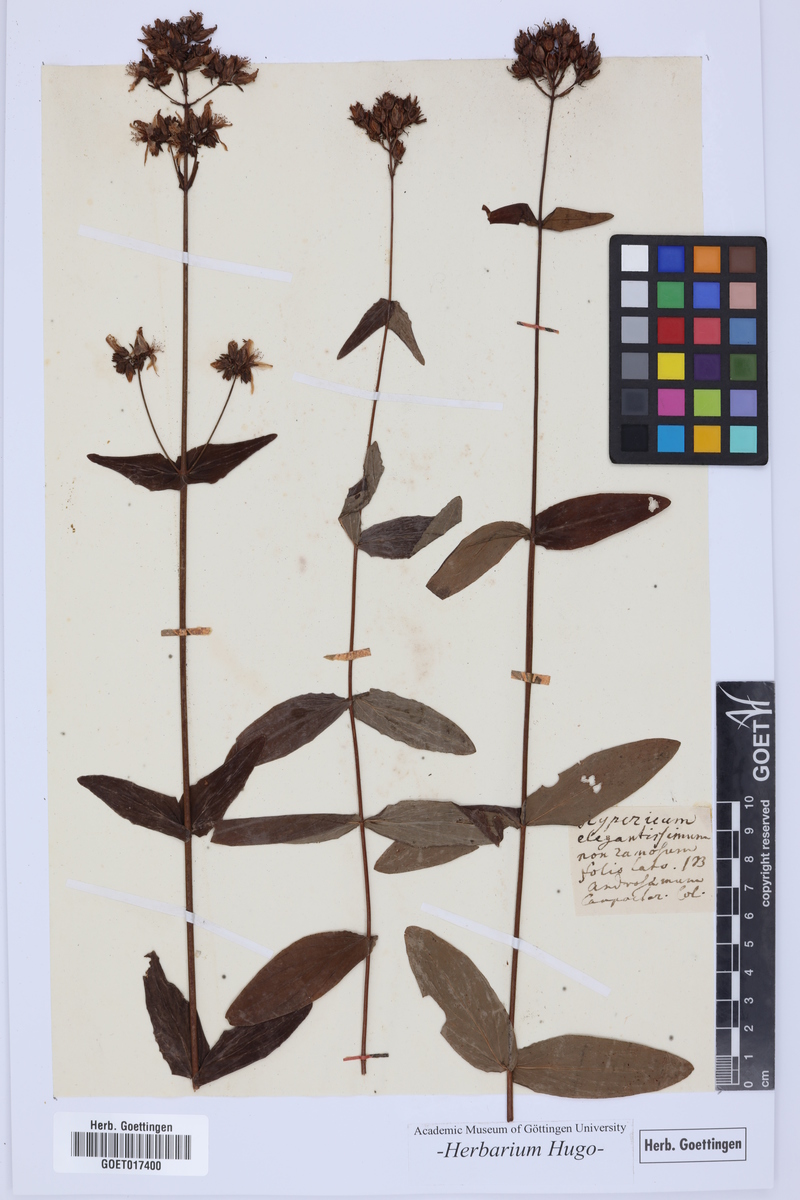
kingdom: Plantae
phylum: Tracheophyta
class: Magnoliopsida
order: Malpighiales
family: Hypericaceae
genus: Hypericum
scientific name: Hypericum hirsutum
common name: Hairy st. john's-wort
